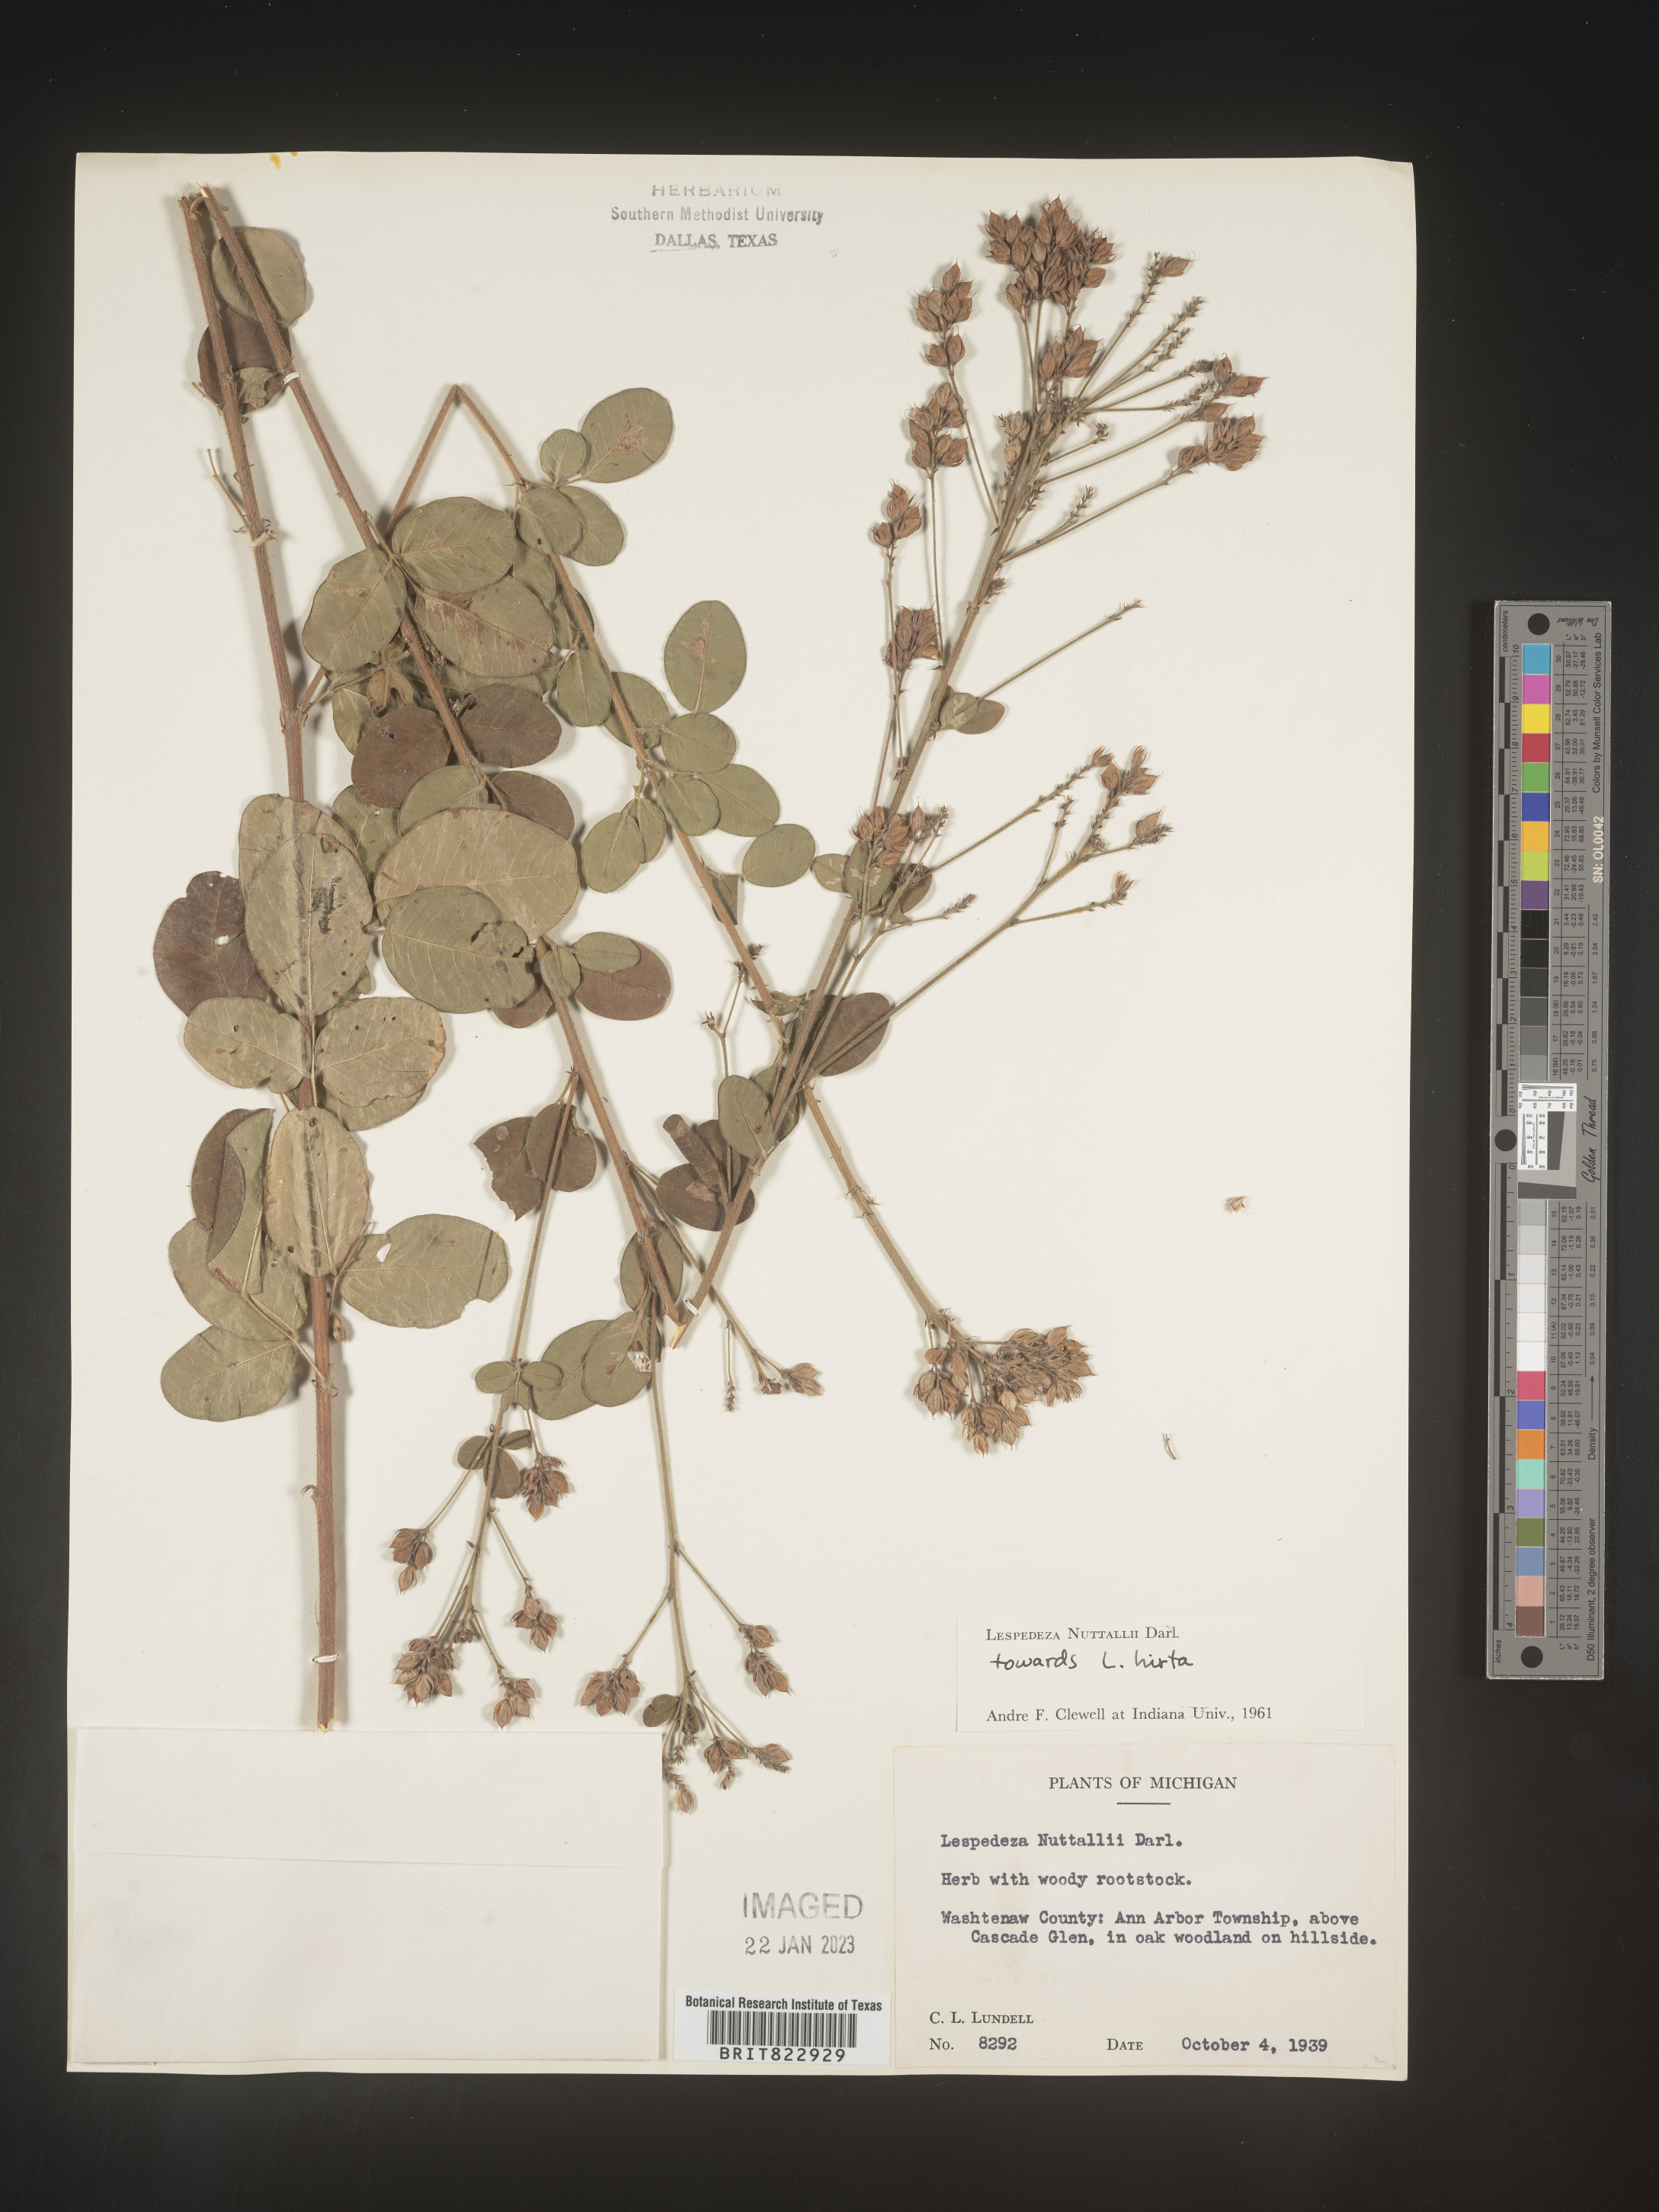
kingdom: Plantae
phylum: Tracheophyta
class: Magnoliopsida
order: Fabales
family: Fabaceae
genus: Lespedeza
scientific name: Lespedeza
